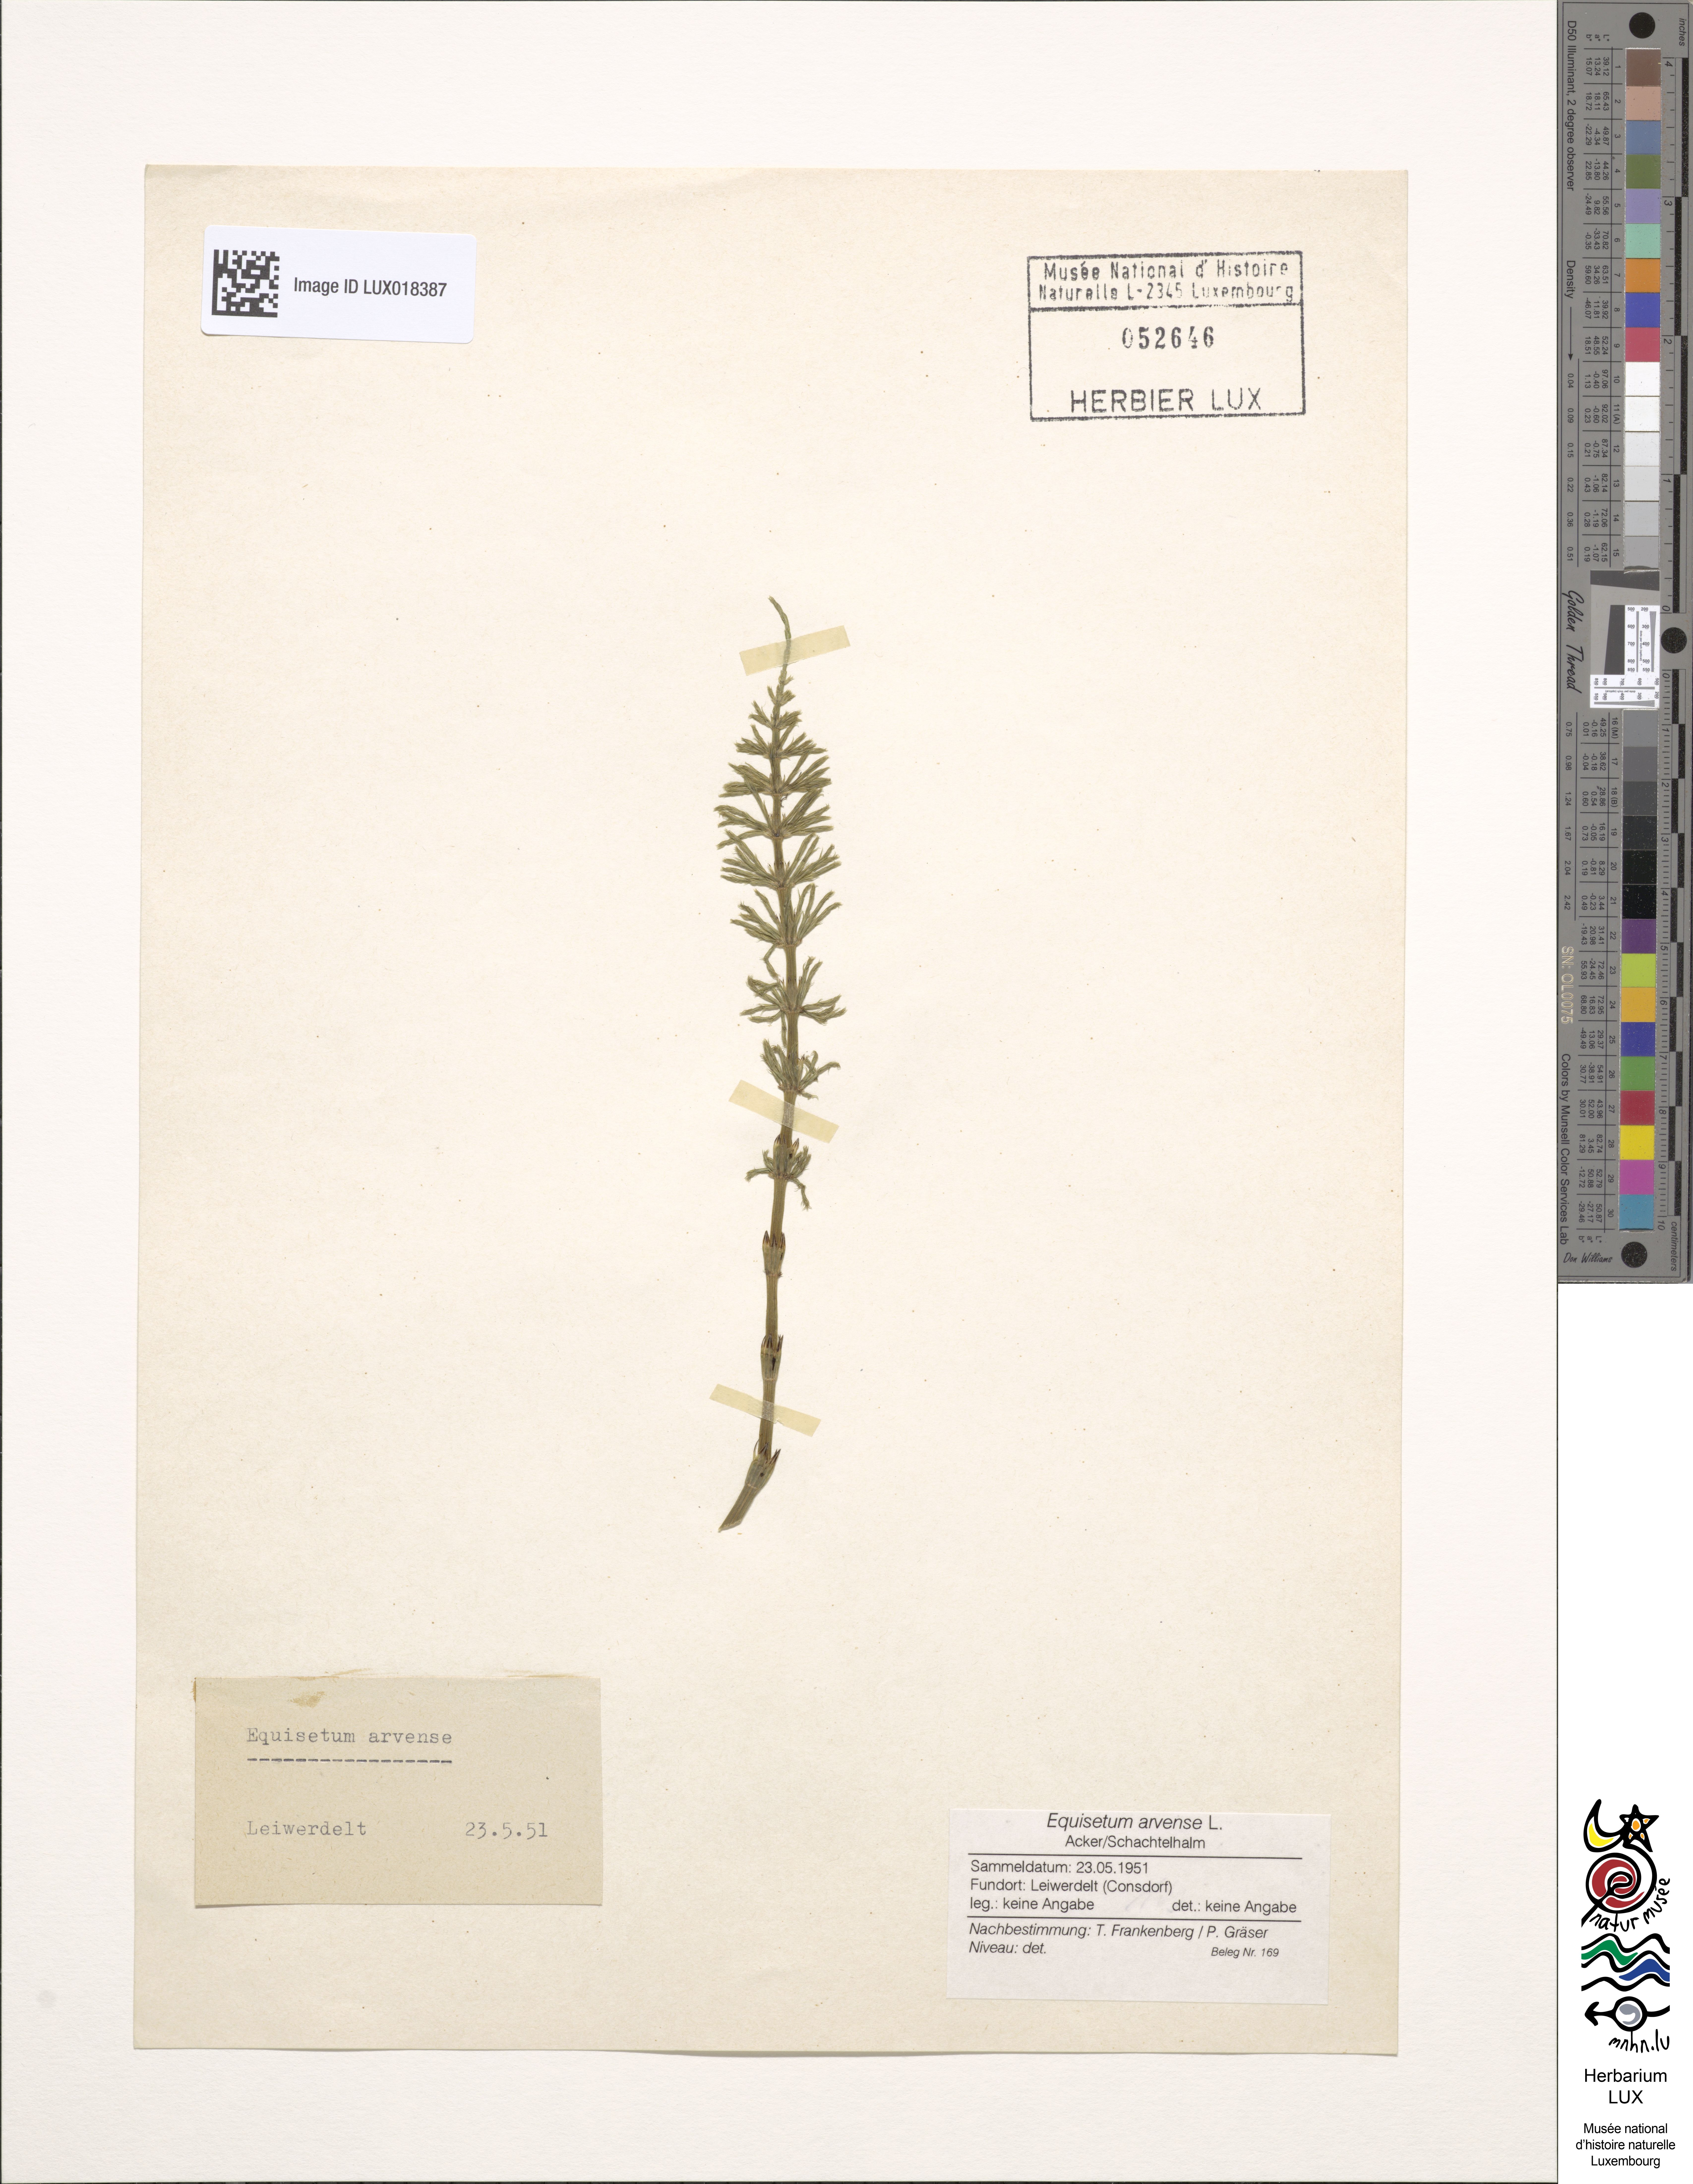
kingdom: Plantae
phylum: Tracheophyta
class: Polypodiopsida
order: Equisetales
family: Equisetaceae
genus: Equisetum
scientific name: Equisetum arvense
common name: Field horsetail
